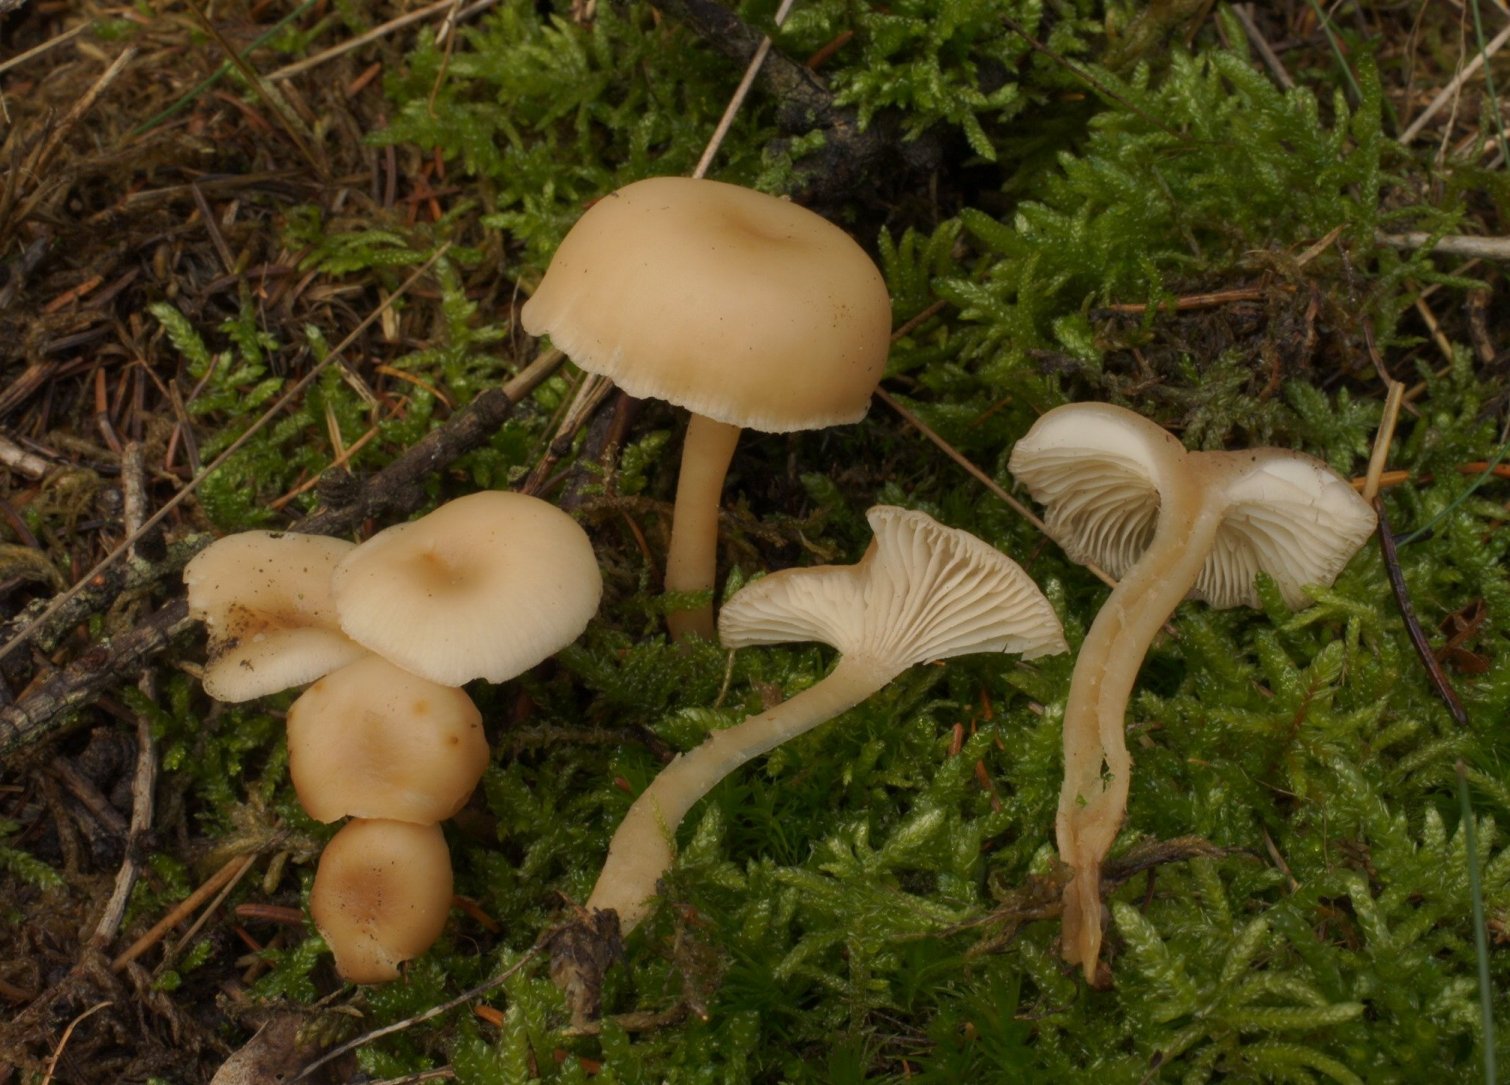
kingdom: Fungi
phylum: Basidiomycota
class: Agaricomycetes
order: Agaricales
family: Tricholomataceae
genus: Clitocybe
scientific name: Clitocybe diatreta
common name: kødfarvet tragthat
